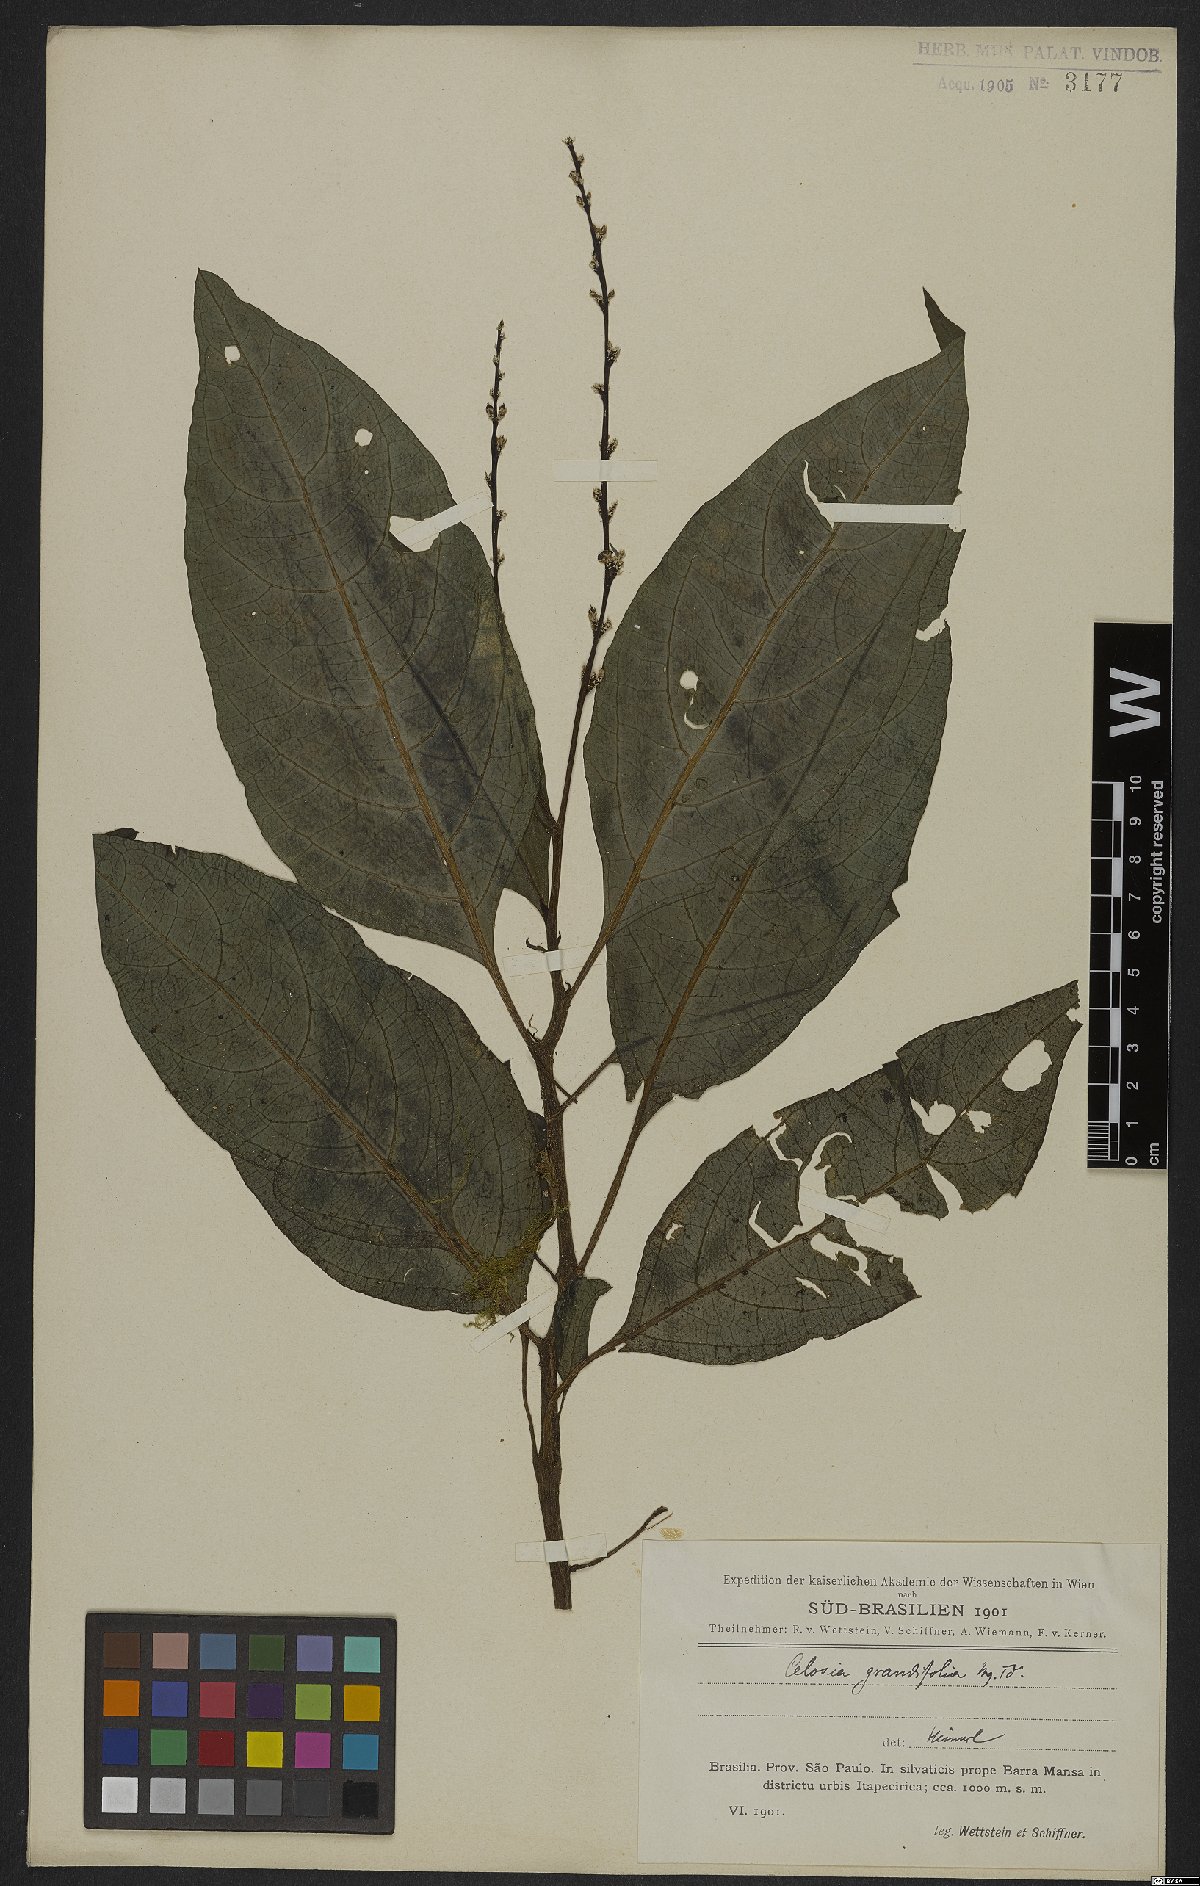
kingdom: Plantae
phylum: Tracheophyta
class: Magnoliopsida
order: Caryophyllales
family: Amaranthaceae
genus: Celosia
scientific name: Celosia grandifolia
